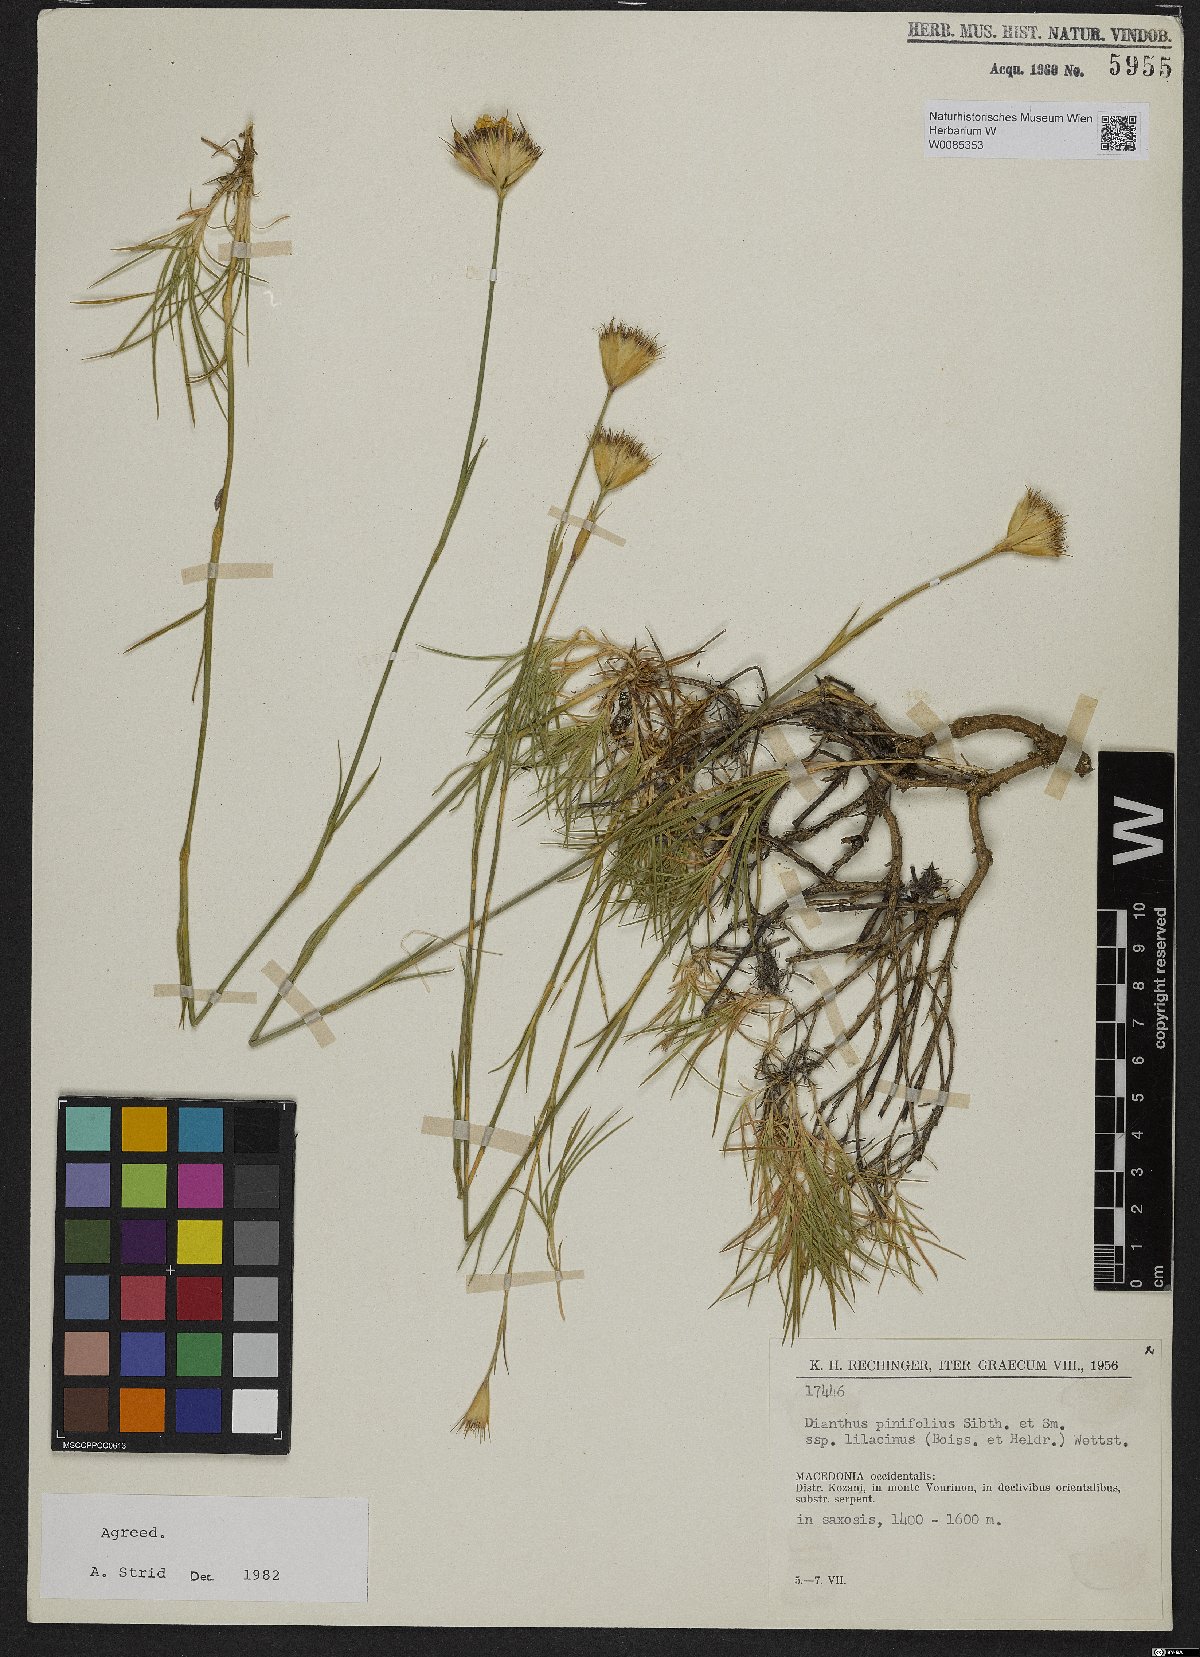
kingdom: Plantae
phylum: Tracheophyta
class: Magnoliopsida
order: Caryophyllales
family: Caryophyllaceae
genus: Dianthus
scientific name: Dianthus pinifolius
